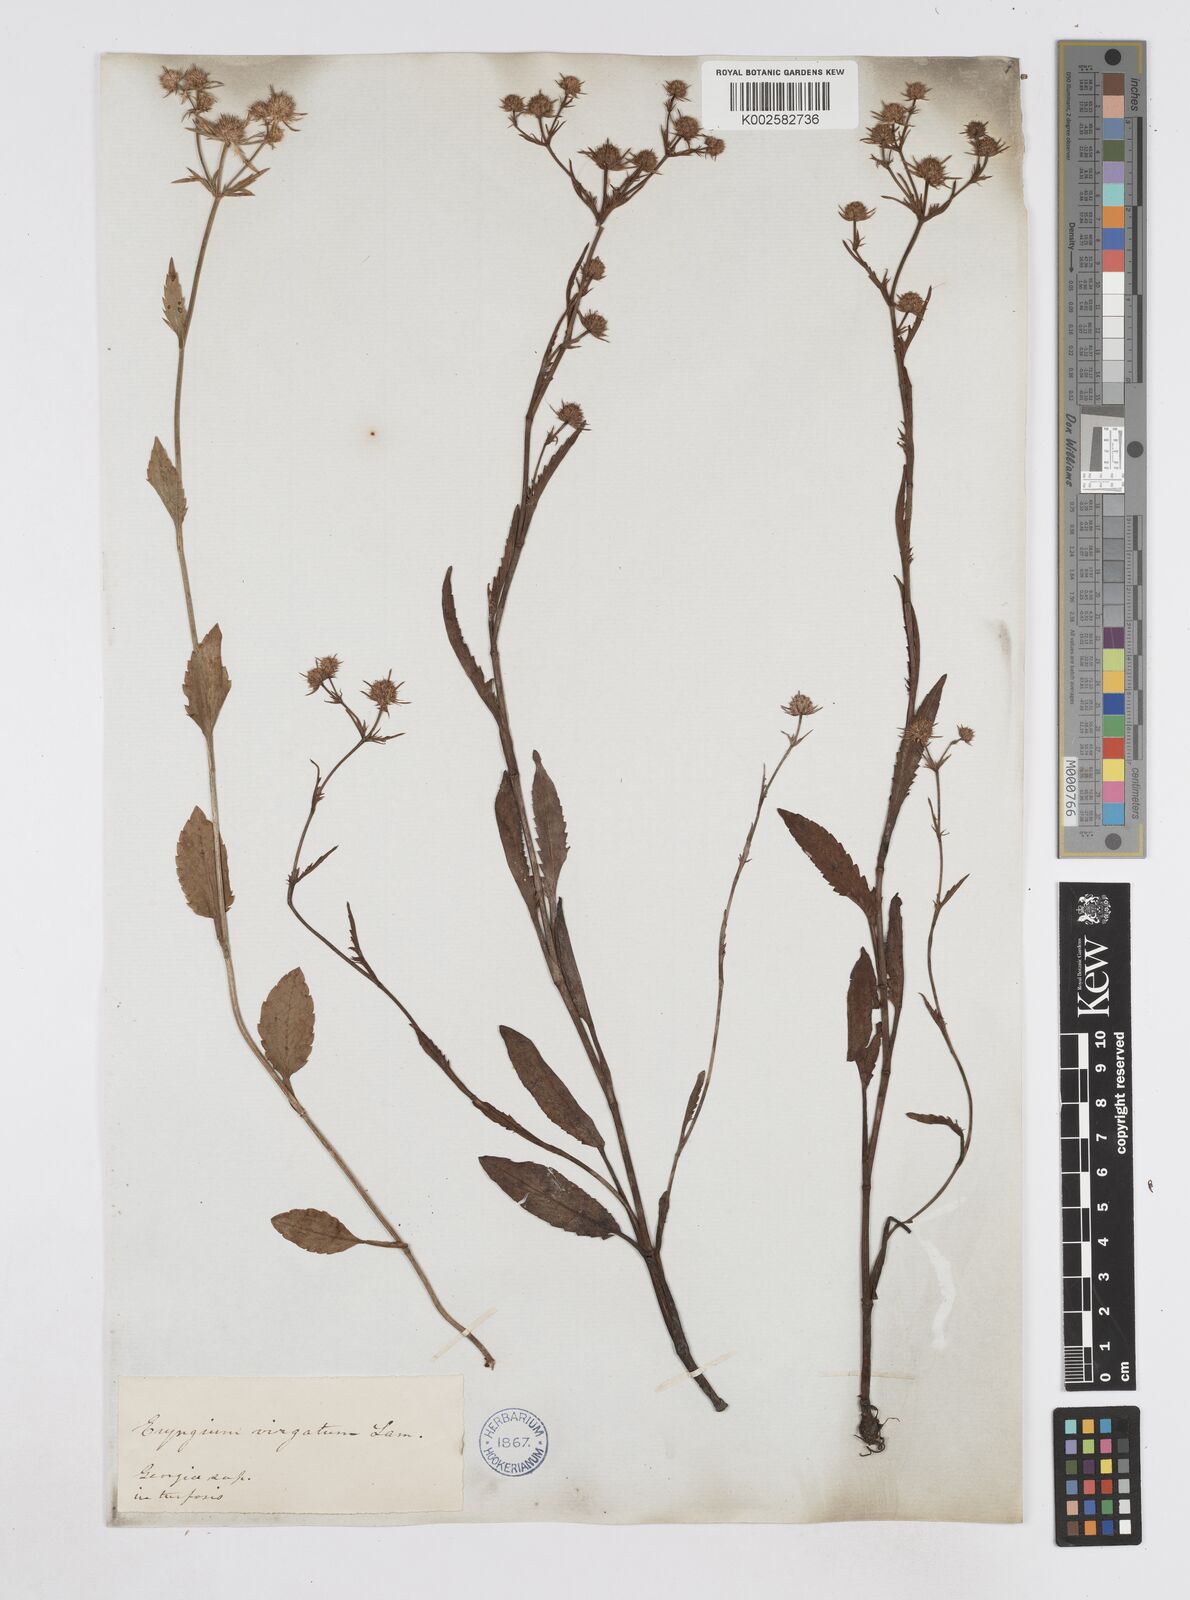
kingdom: Plantae
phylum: Tracheophyta
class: Magnoliopsida
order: Apiales
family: Apiaceae
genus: Eryngium
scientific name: Eryngium integrifolium
